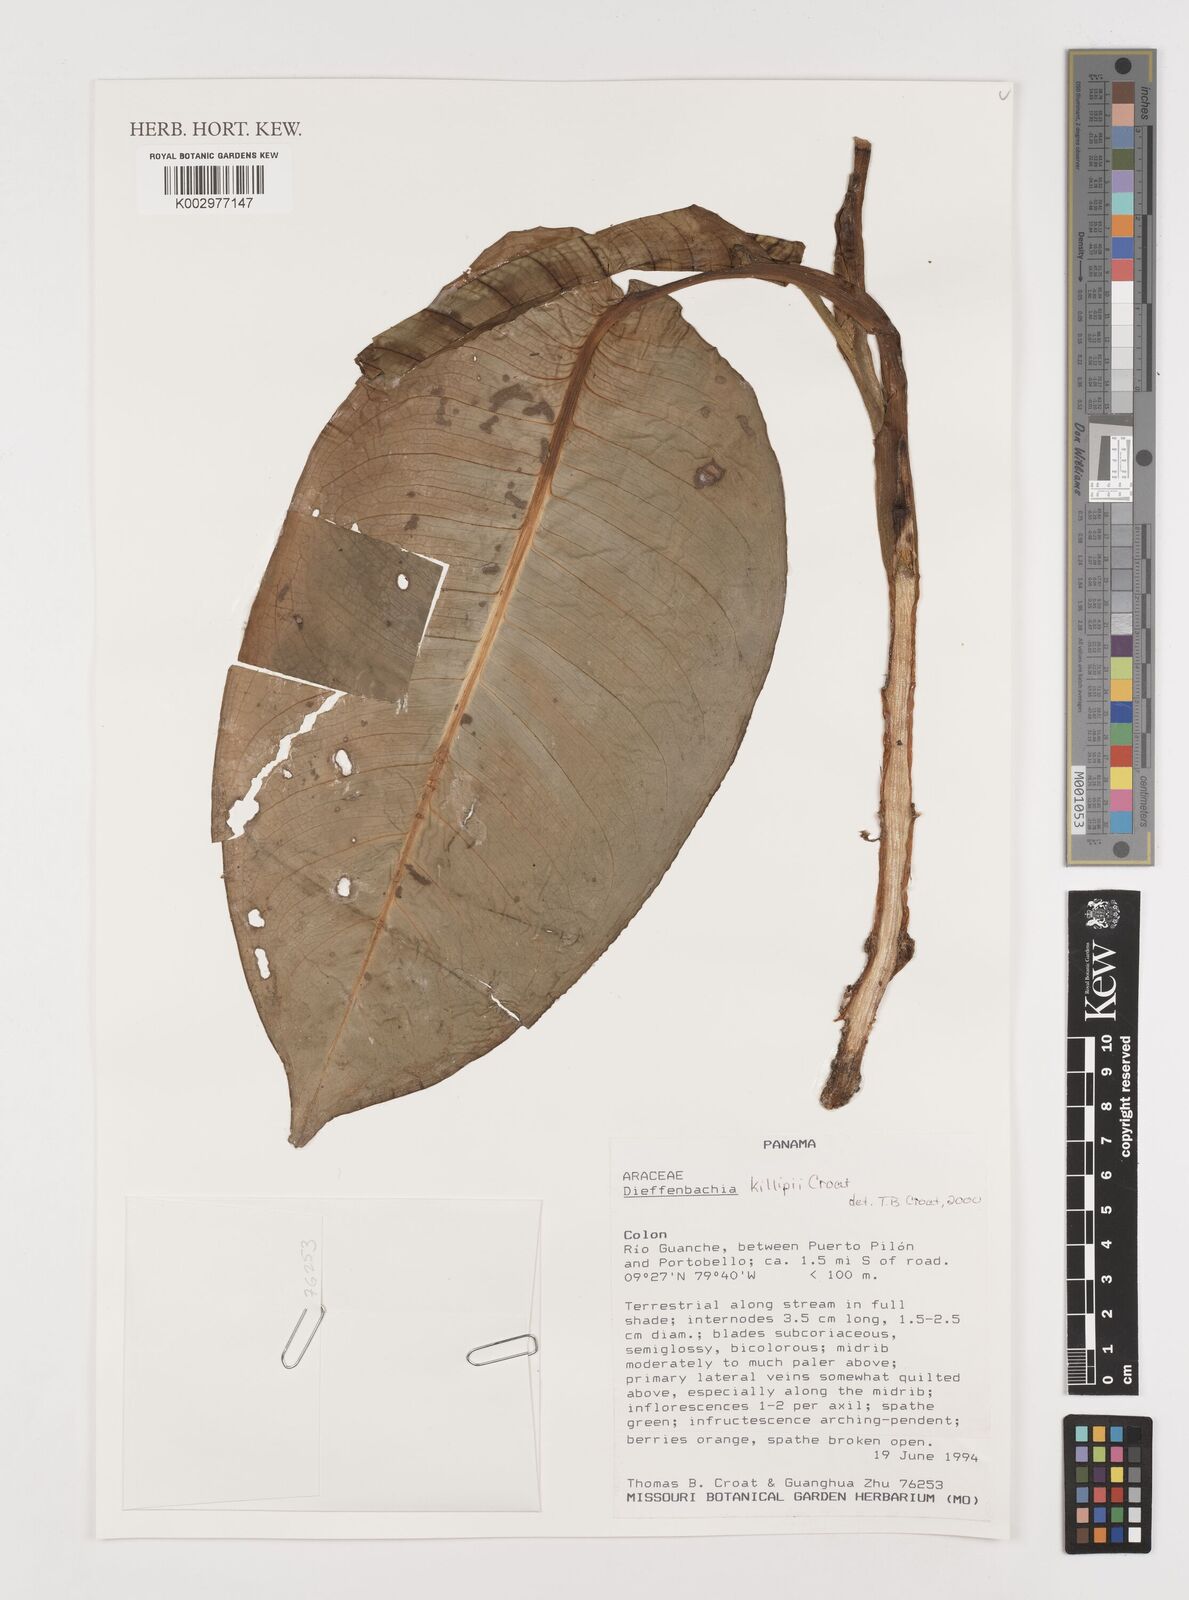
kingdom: Plantae
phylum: Tracheophyta
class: Liliopsida
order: Alismatales
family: Araceae
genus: Dieffenbachia
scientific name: Dieffenbachia killipii
